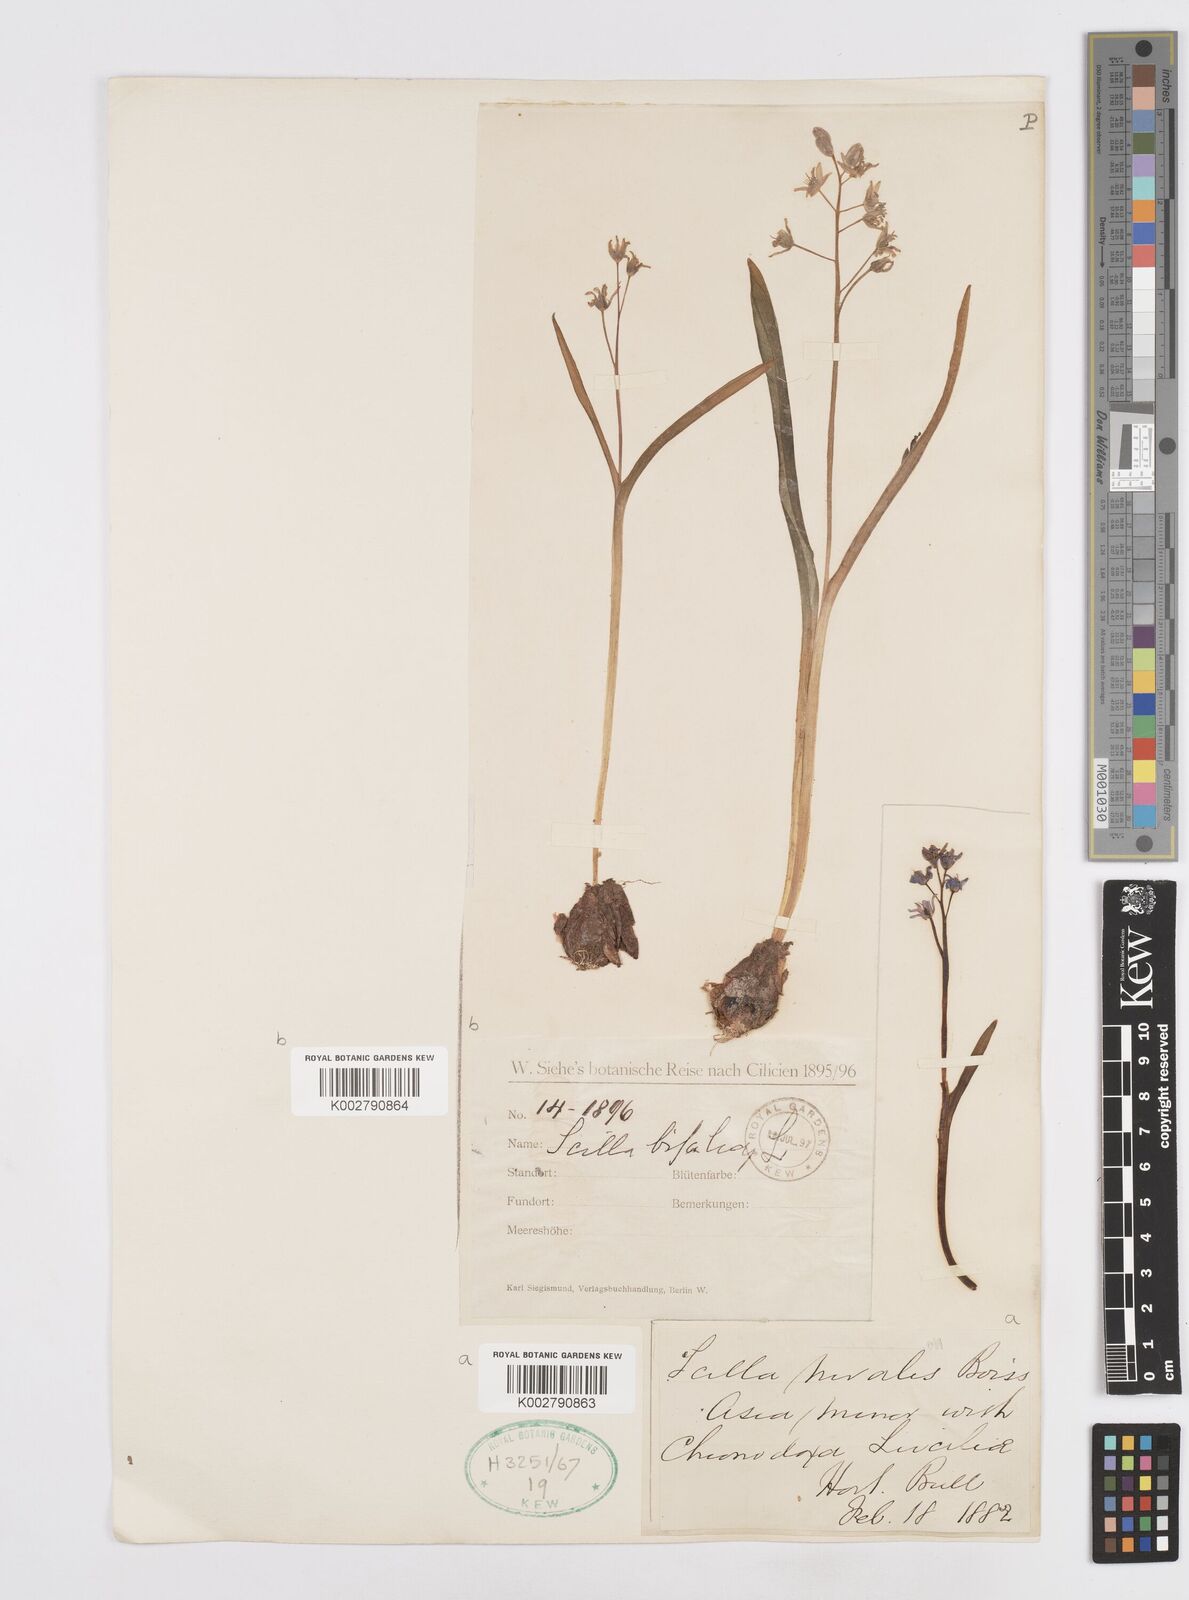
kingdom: Plantae
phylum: Tracheophyta
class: Liliopsida
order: Asparagales
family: Asparagaceae
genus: Scilla
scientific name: Scilla bifolia
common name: Alpine squill
